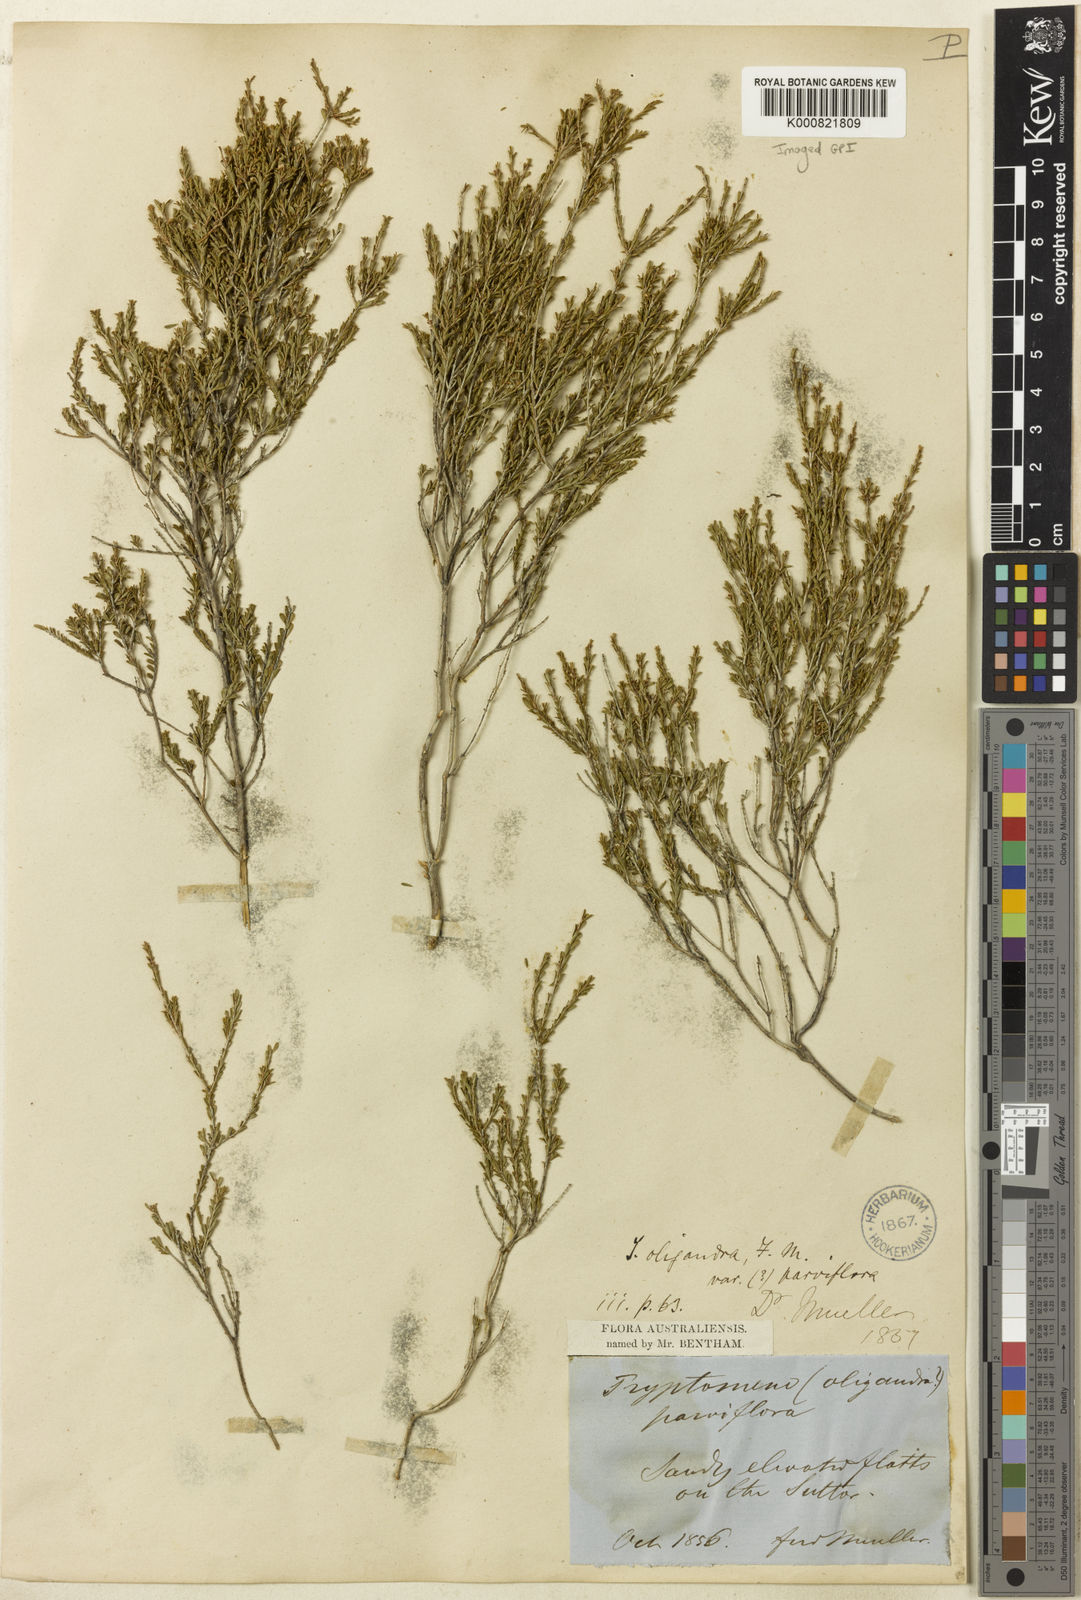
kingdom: Plantae
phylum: Tracheophyta
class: Magnoliopsida
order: Myrtales
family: Myrtaceae
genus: Thryptomene
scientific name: Thryptomene parviflora
